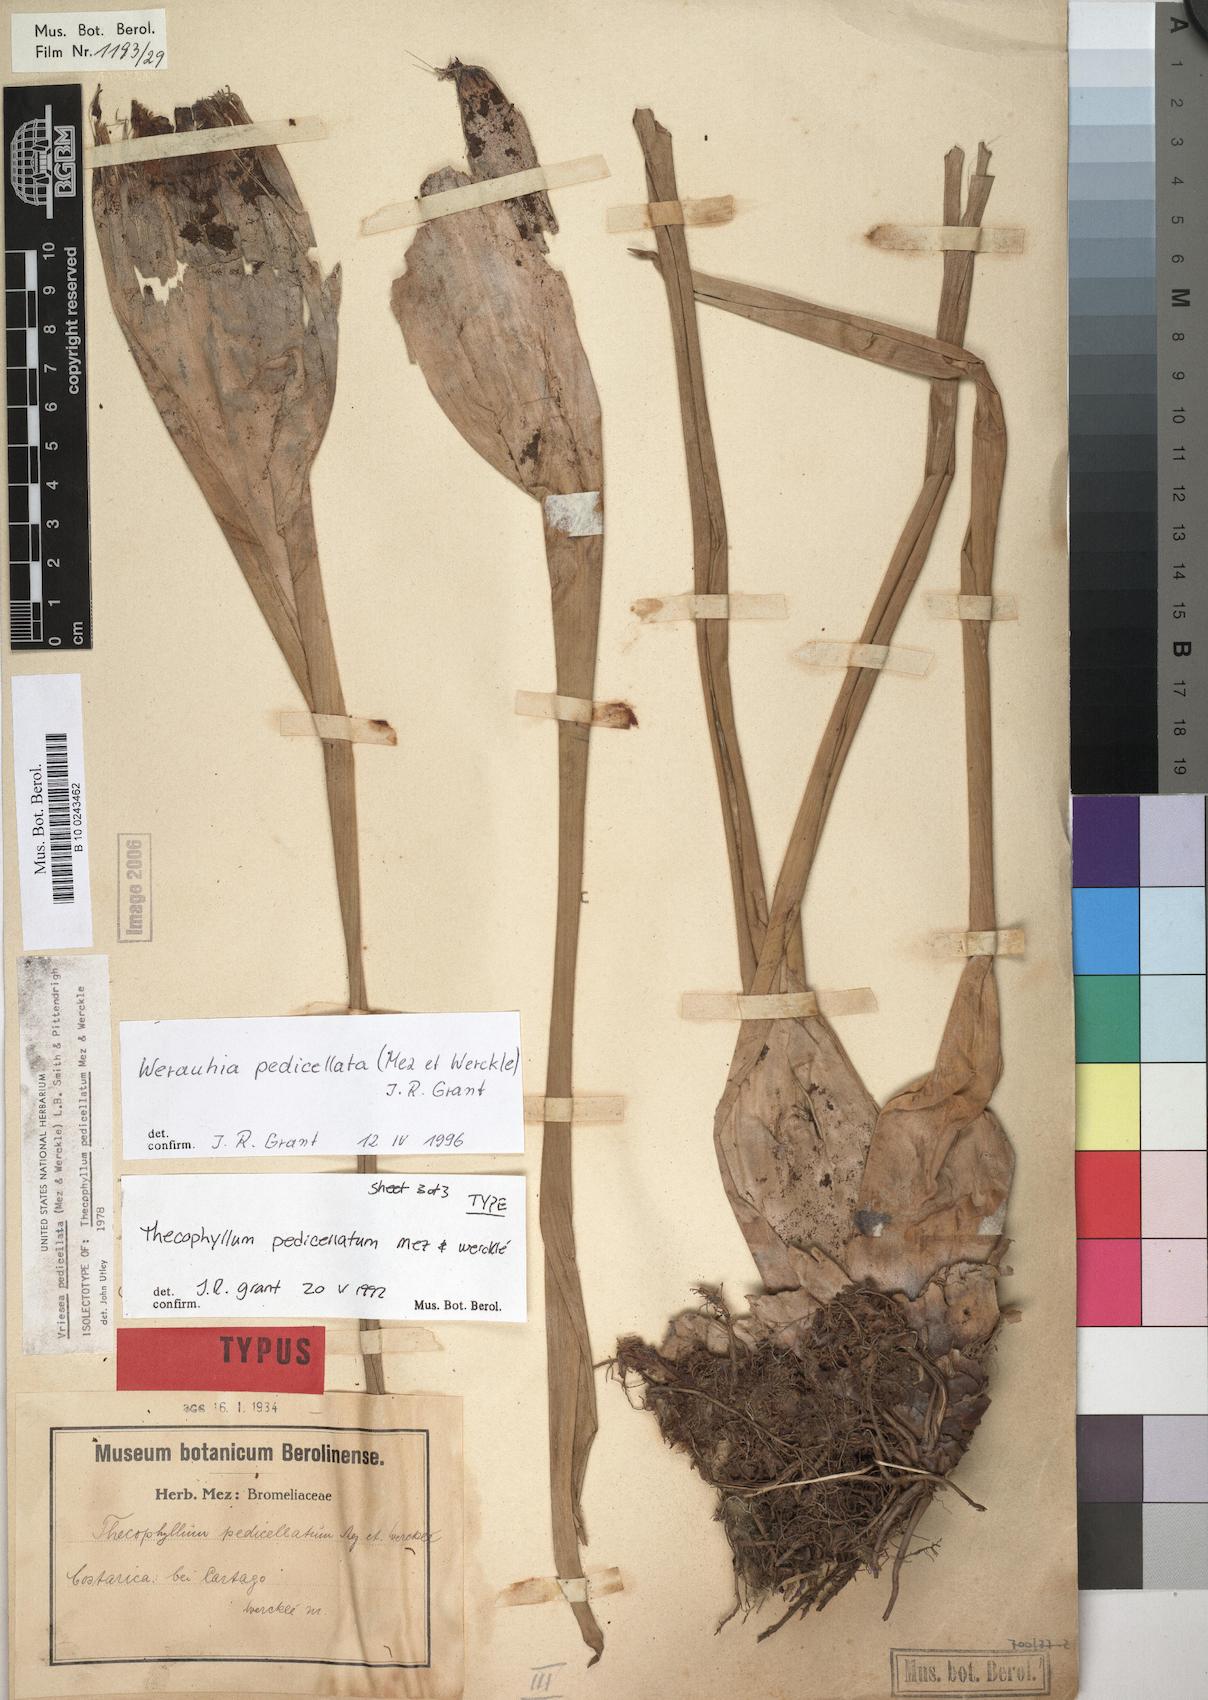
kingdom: Plantae
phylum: Tracheophyta
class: Liliopsida
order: Poales
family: Bromeliaceae
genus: Werauhia
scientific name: Werauhia pedicellata
